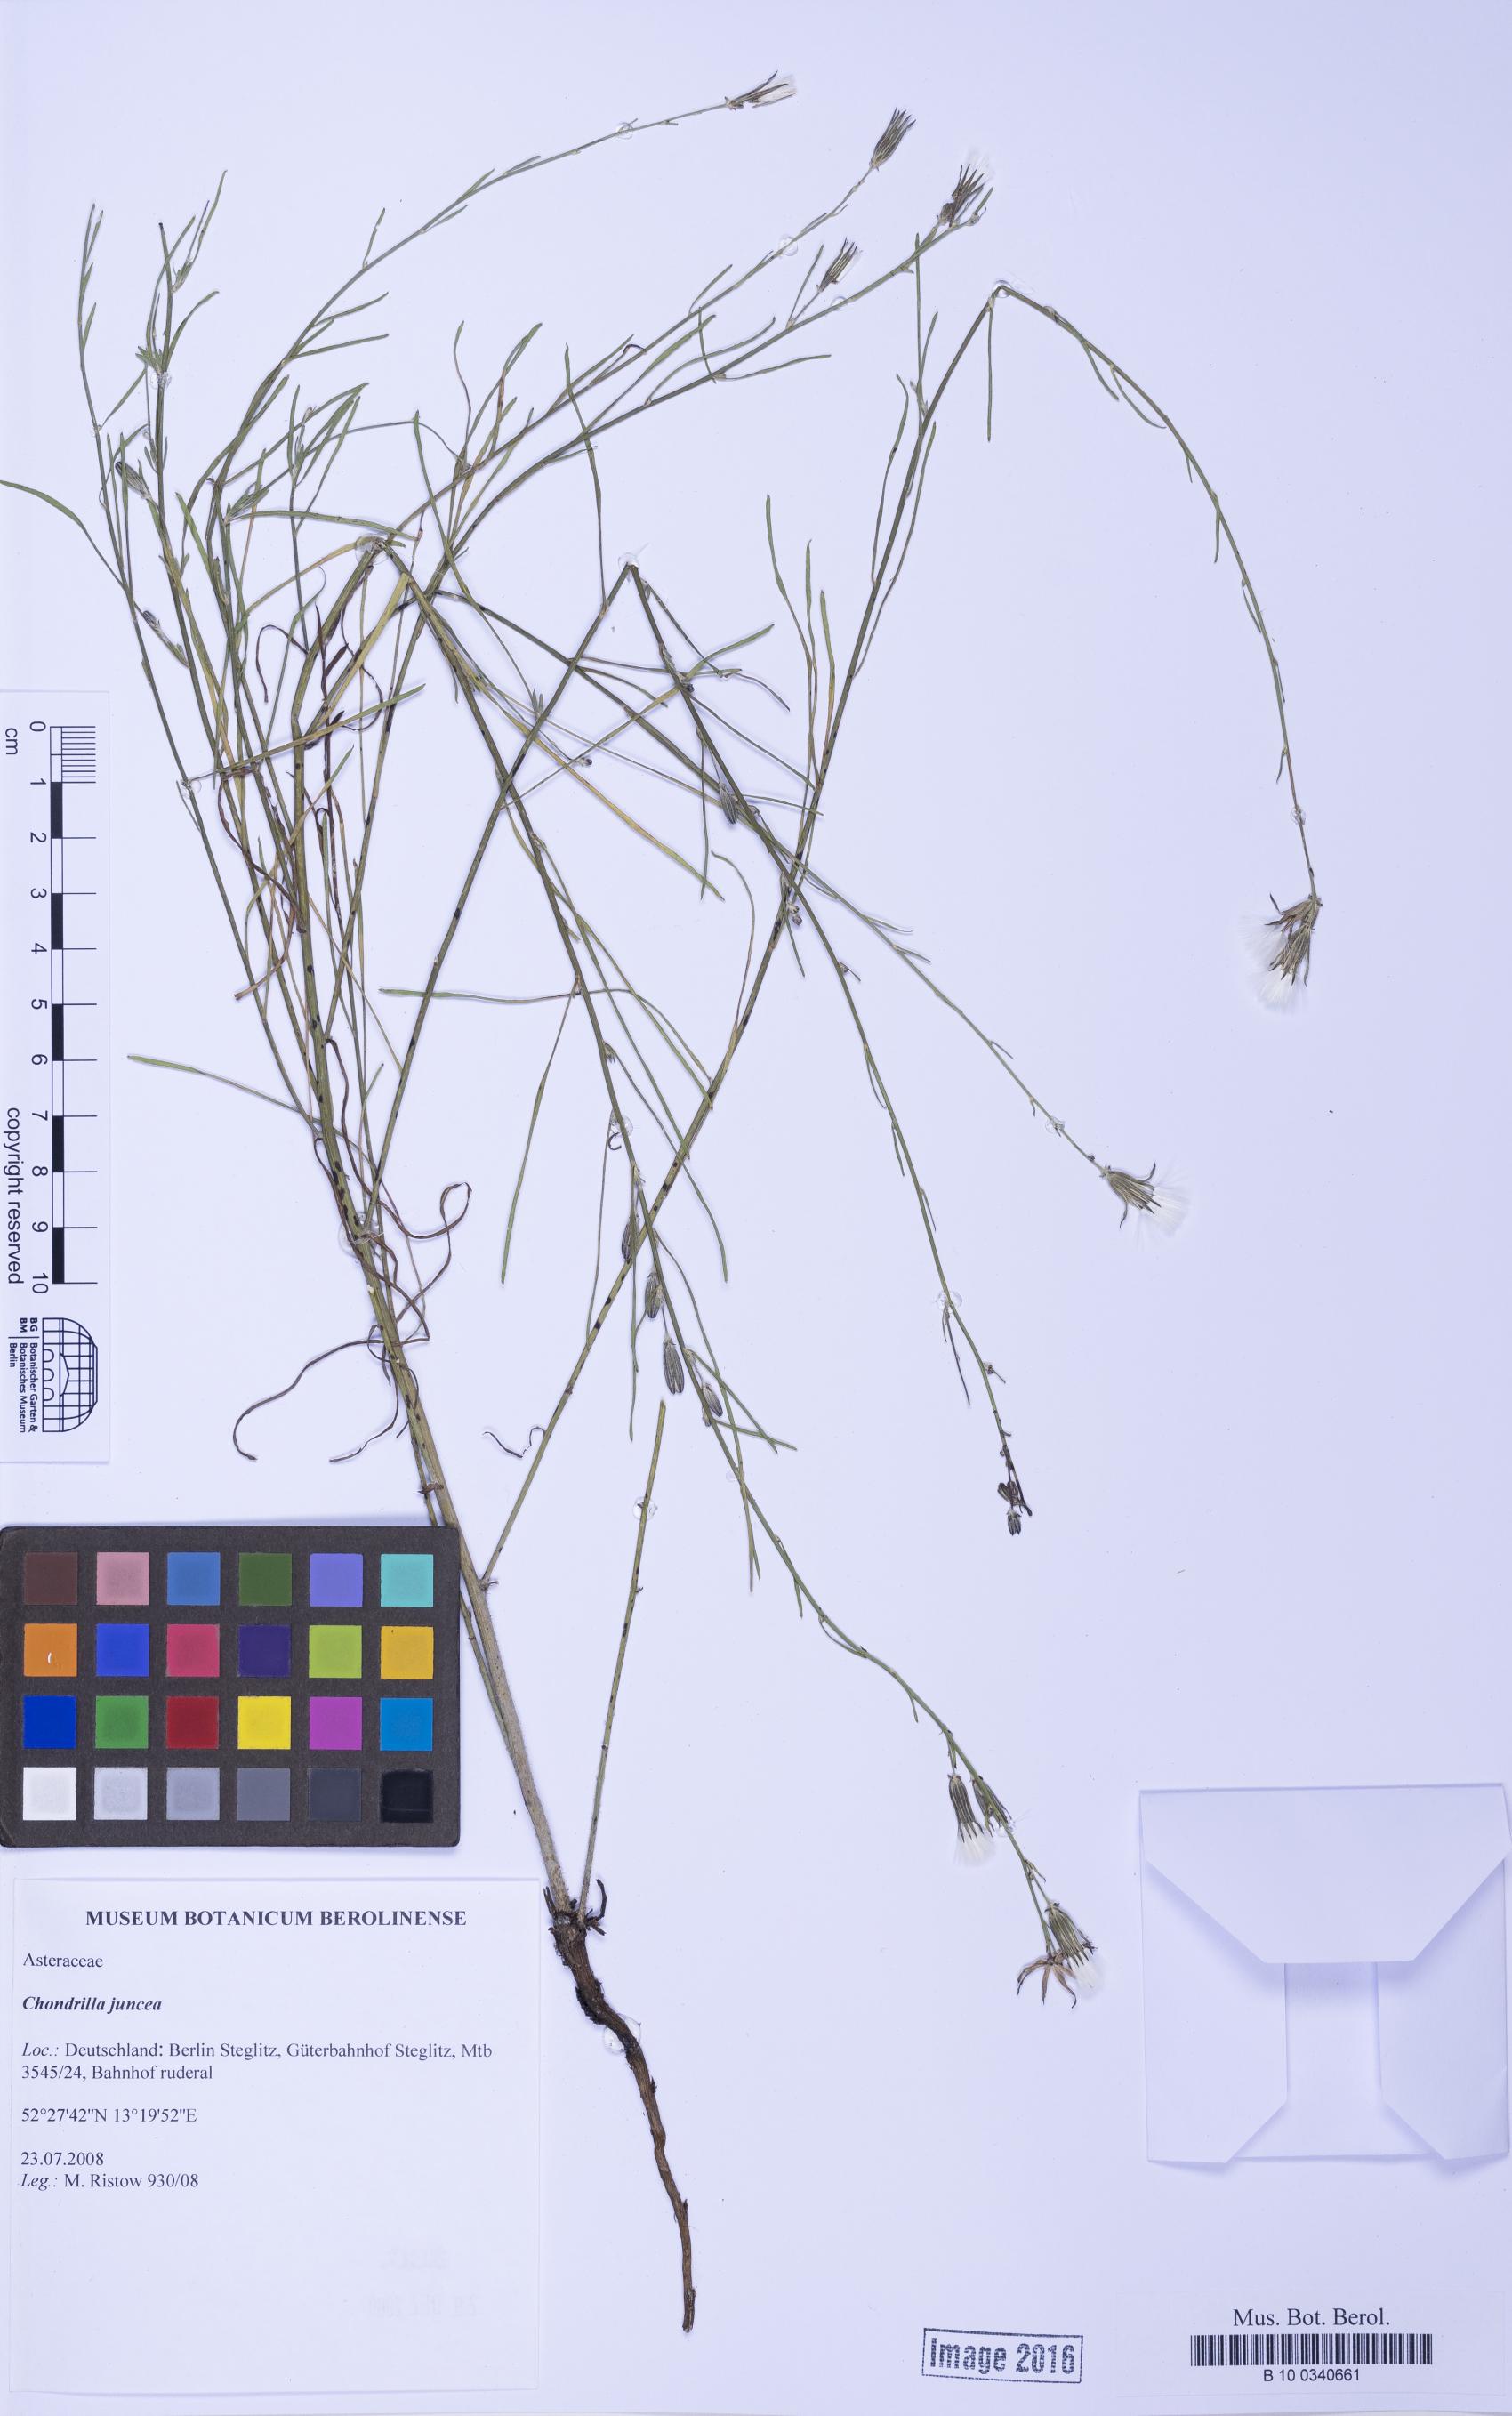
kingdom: Plantae
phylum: Tracheophyta
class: Magnoliopsida
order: Asterales
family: Asteraceae
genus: Chondrilla
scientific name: Chondrilla juncea
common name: Skeleton weed
